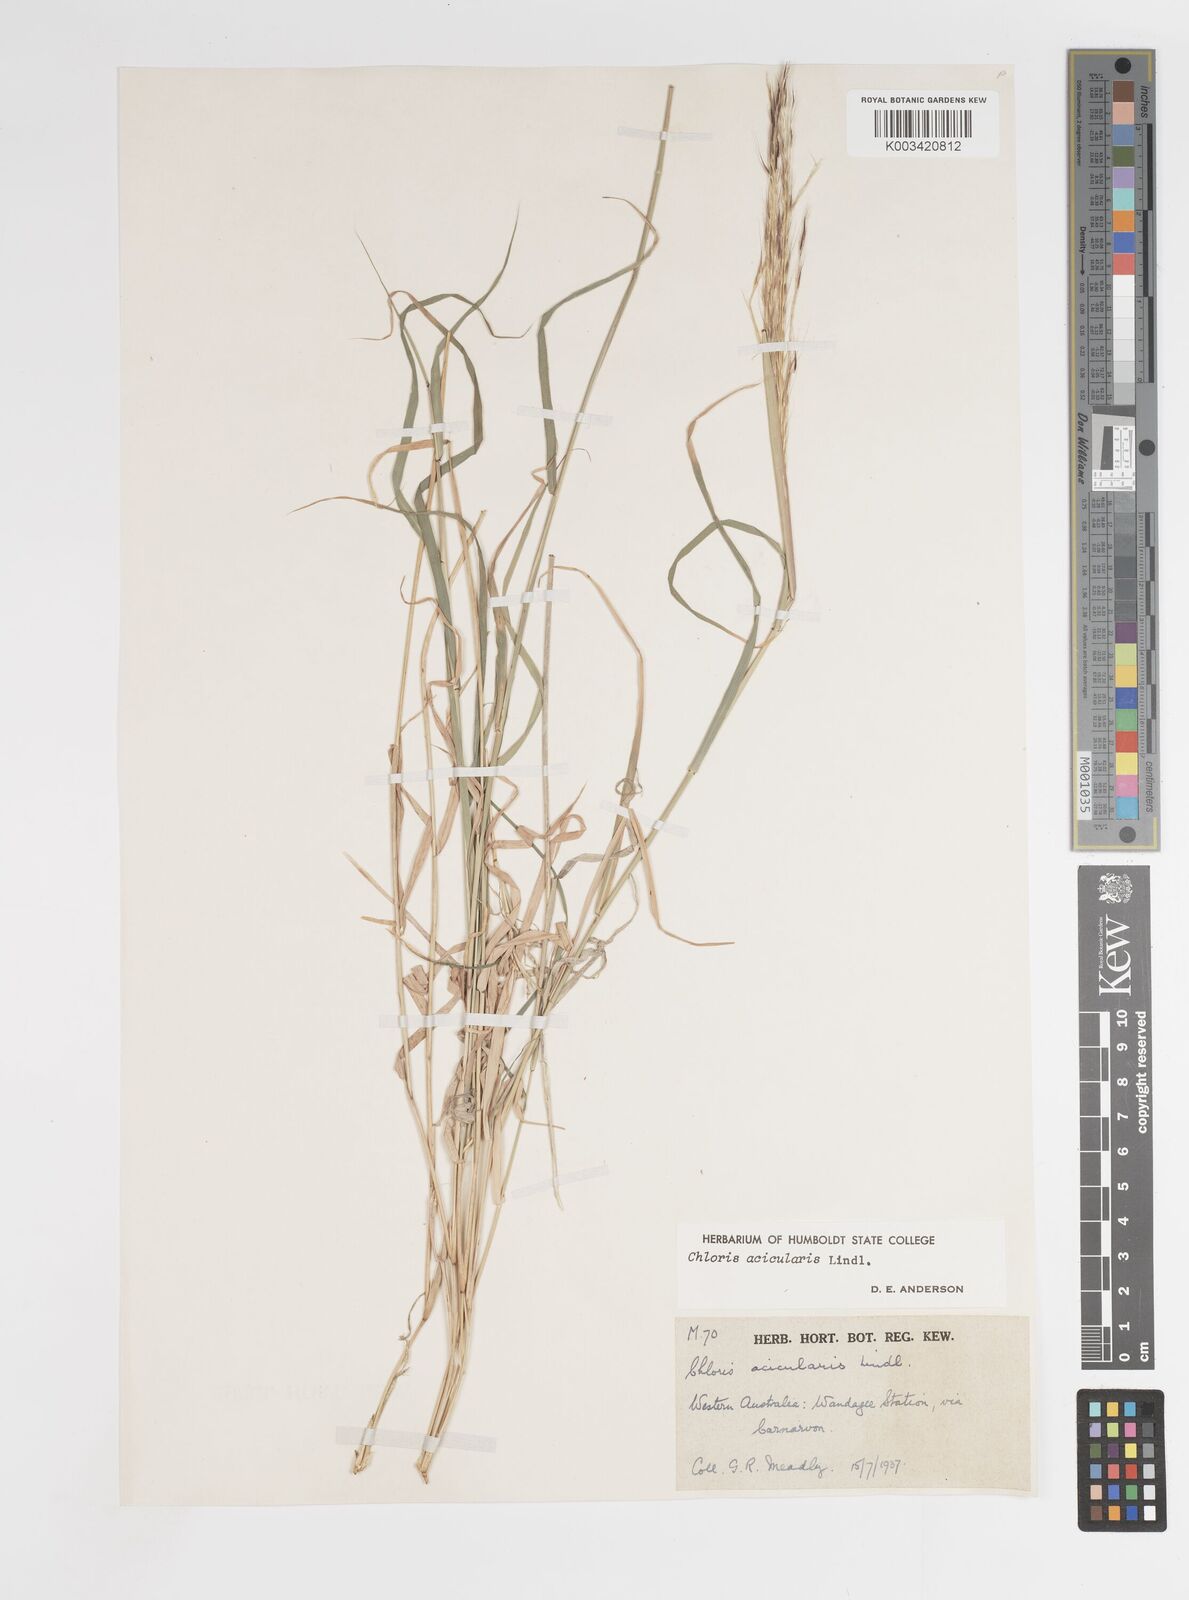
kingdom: Plantae
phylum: Tracheophyta
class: Liliopsida
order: Poales
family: Poaceae
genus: Enteropogon
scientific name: Enteropogon acicularis
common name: Curly windmill grass
